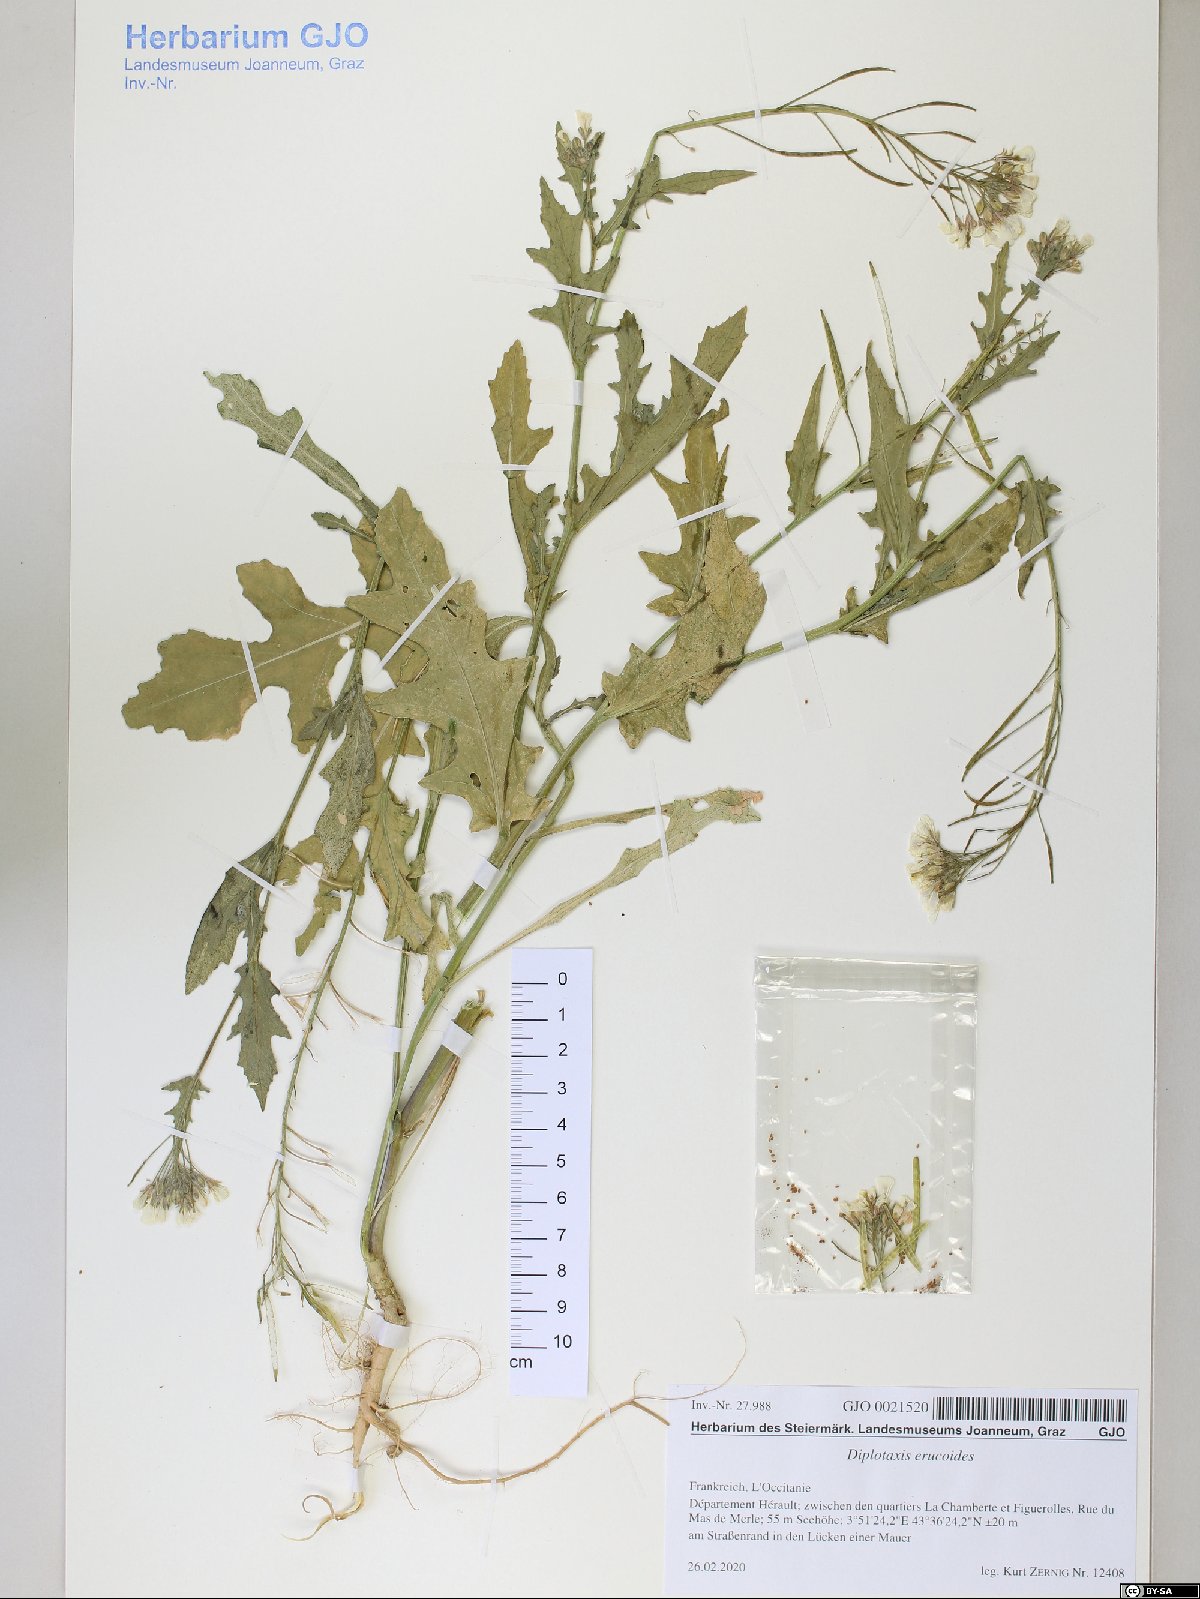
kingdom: Plantae
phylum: Tracheophyta
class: Magnoliopsida
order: Brassicales
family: Brassicaceae
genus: Diplotaxis
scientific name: Diplotaxis erucoides
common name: White rocket
